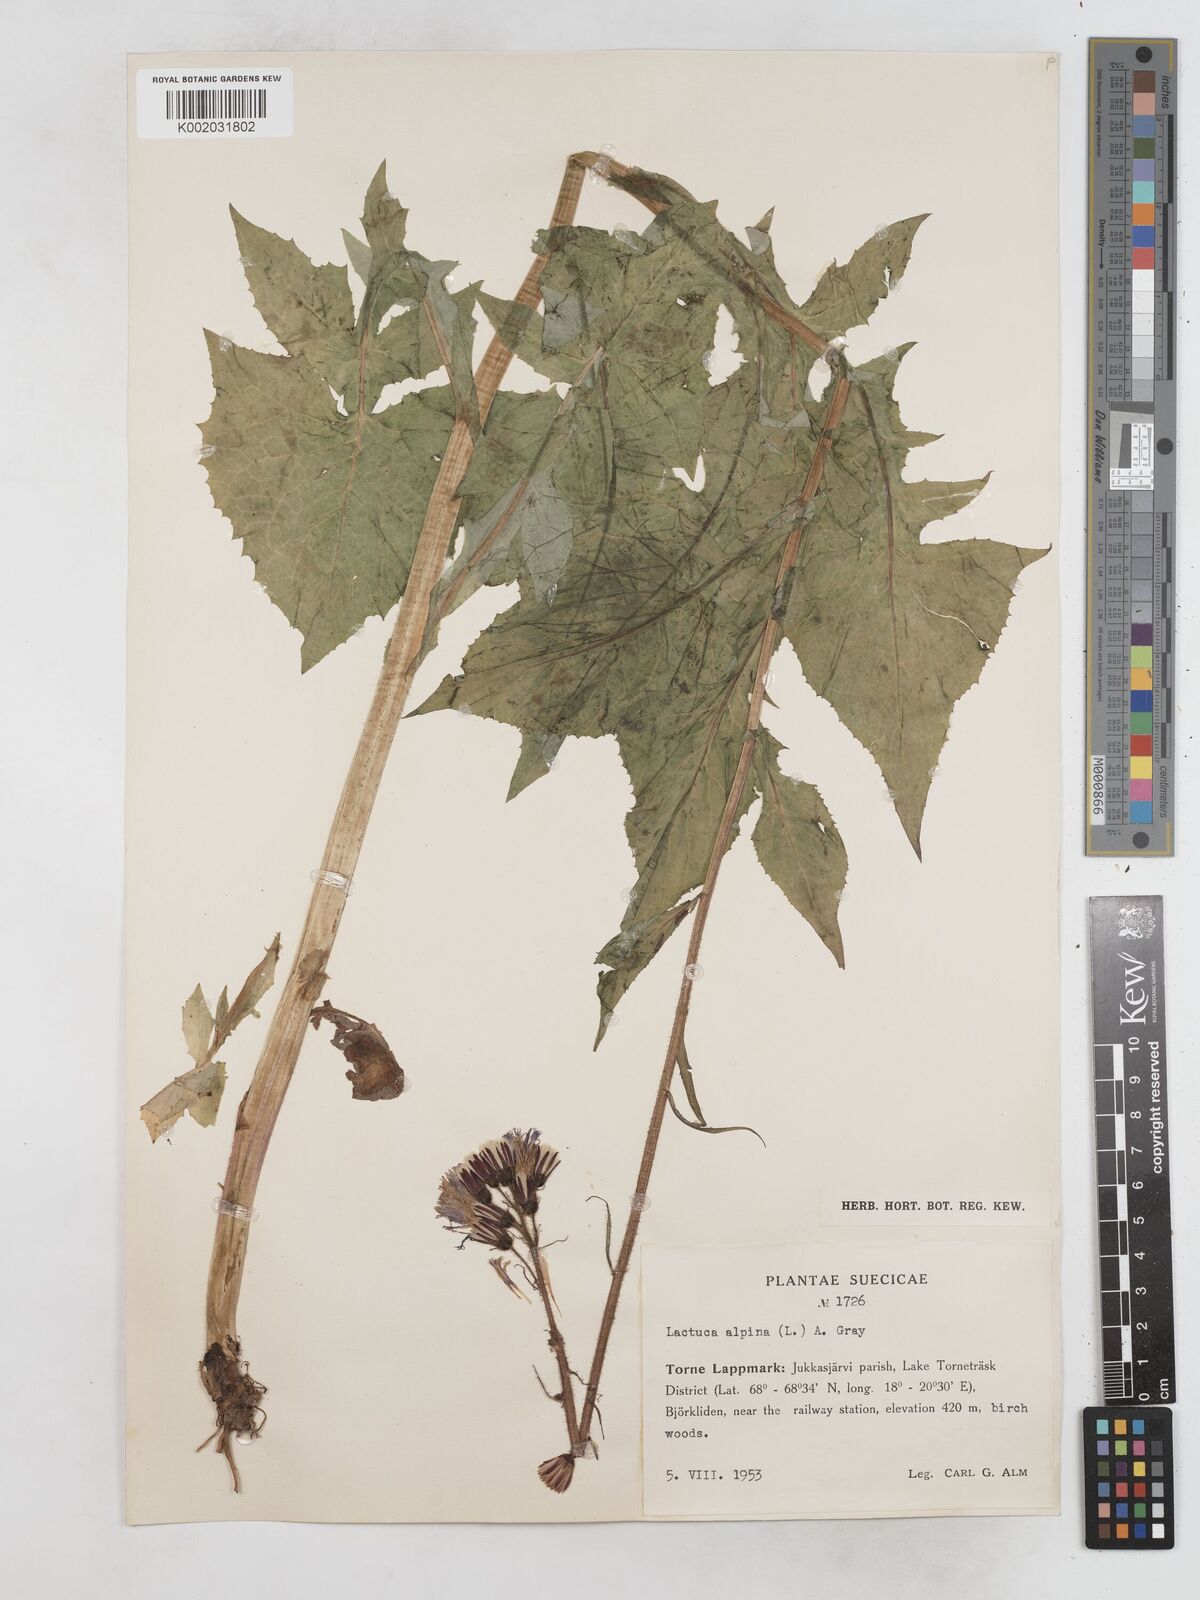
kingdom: Plantae
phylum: Tracheophyta
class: Magnoliopsida
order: Asterales
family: Asteraceae
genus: Cicerbita
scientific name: Cicerbita alpina
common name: Alpine blue-sow-thistle
